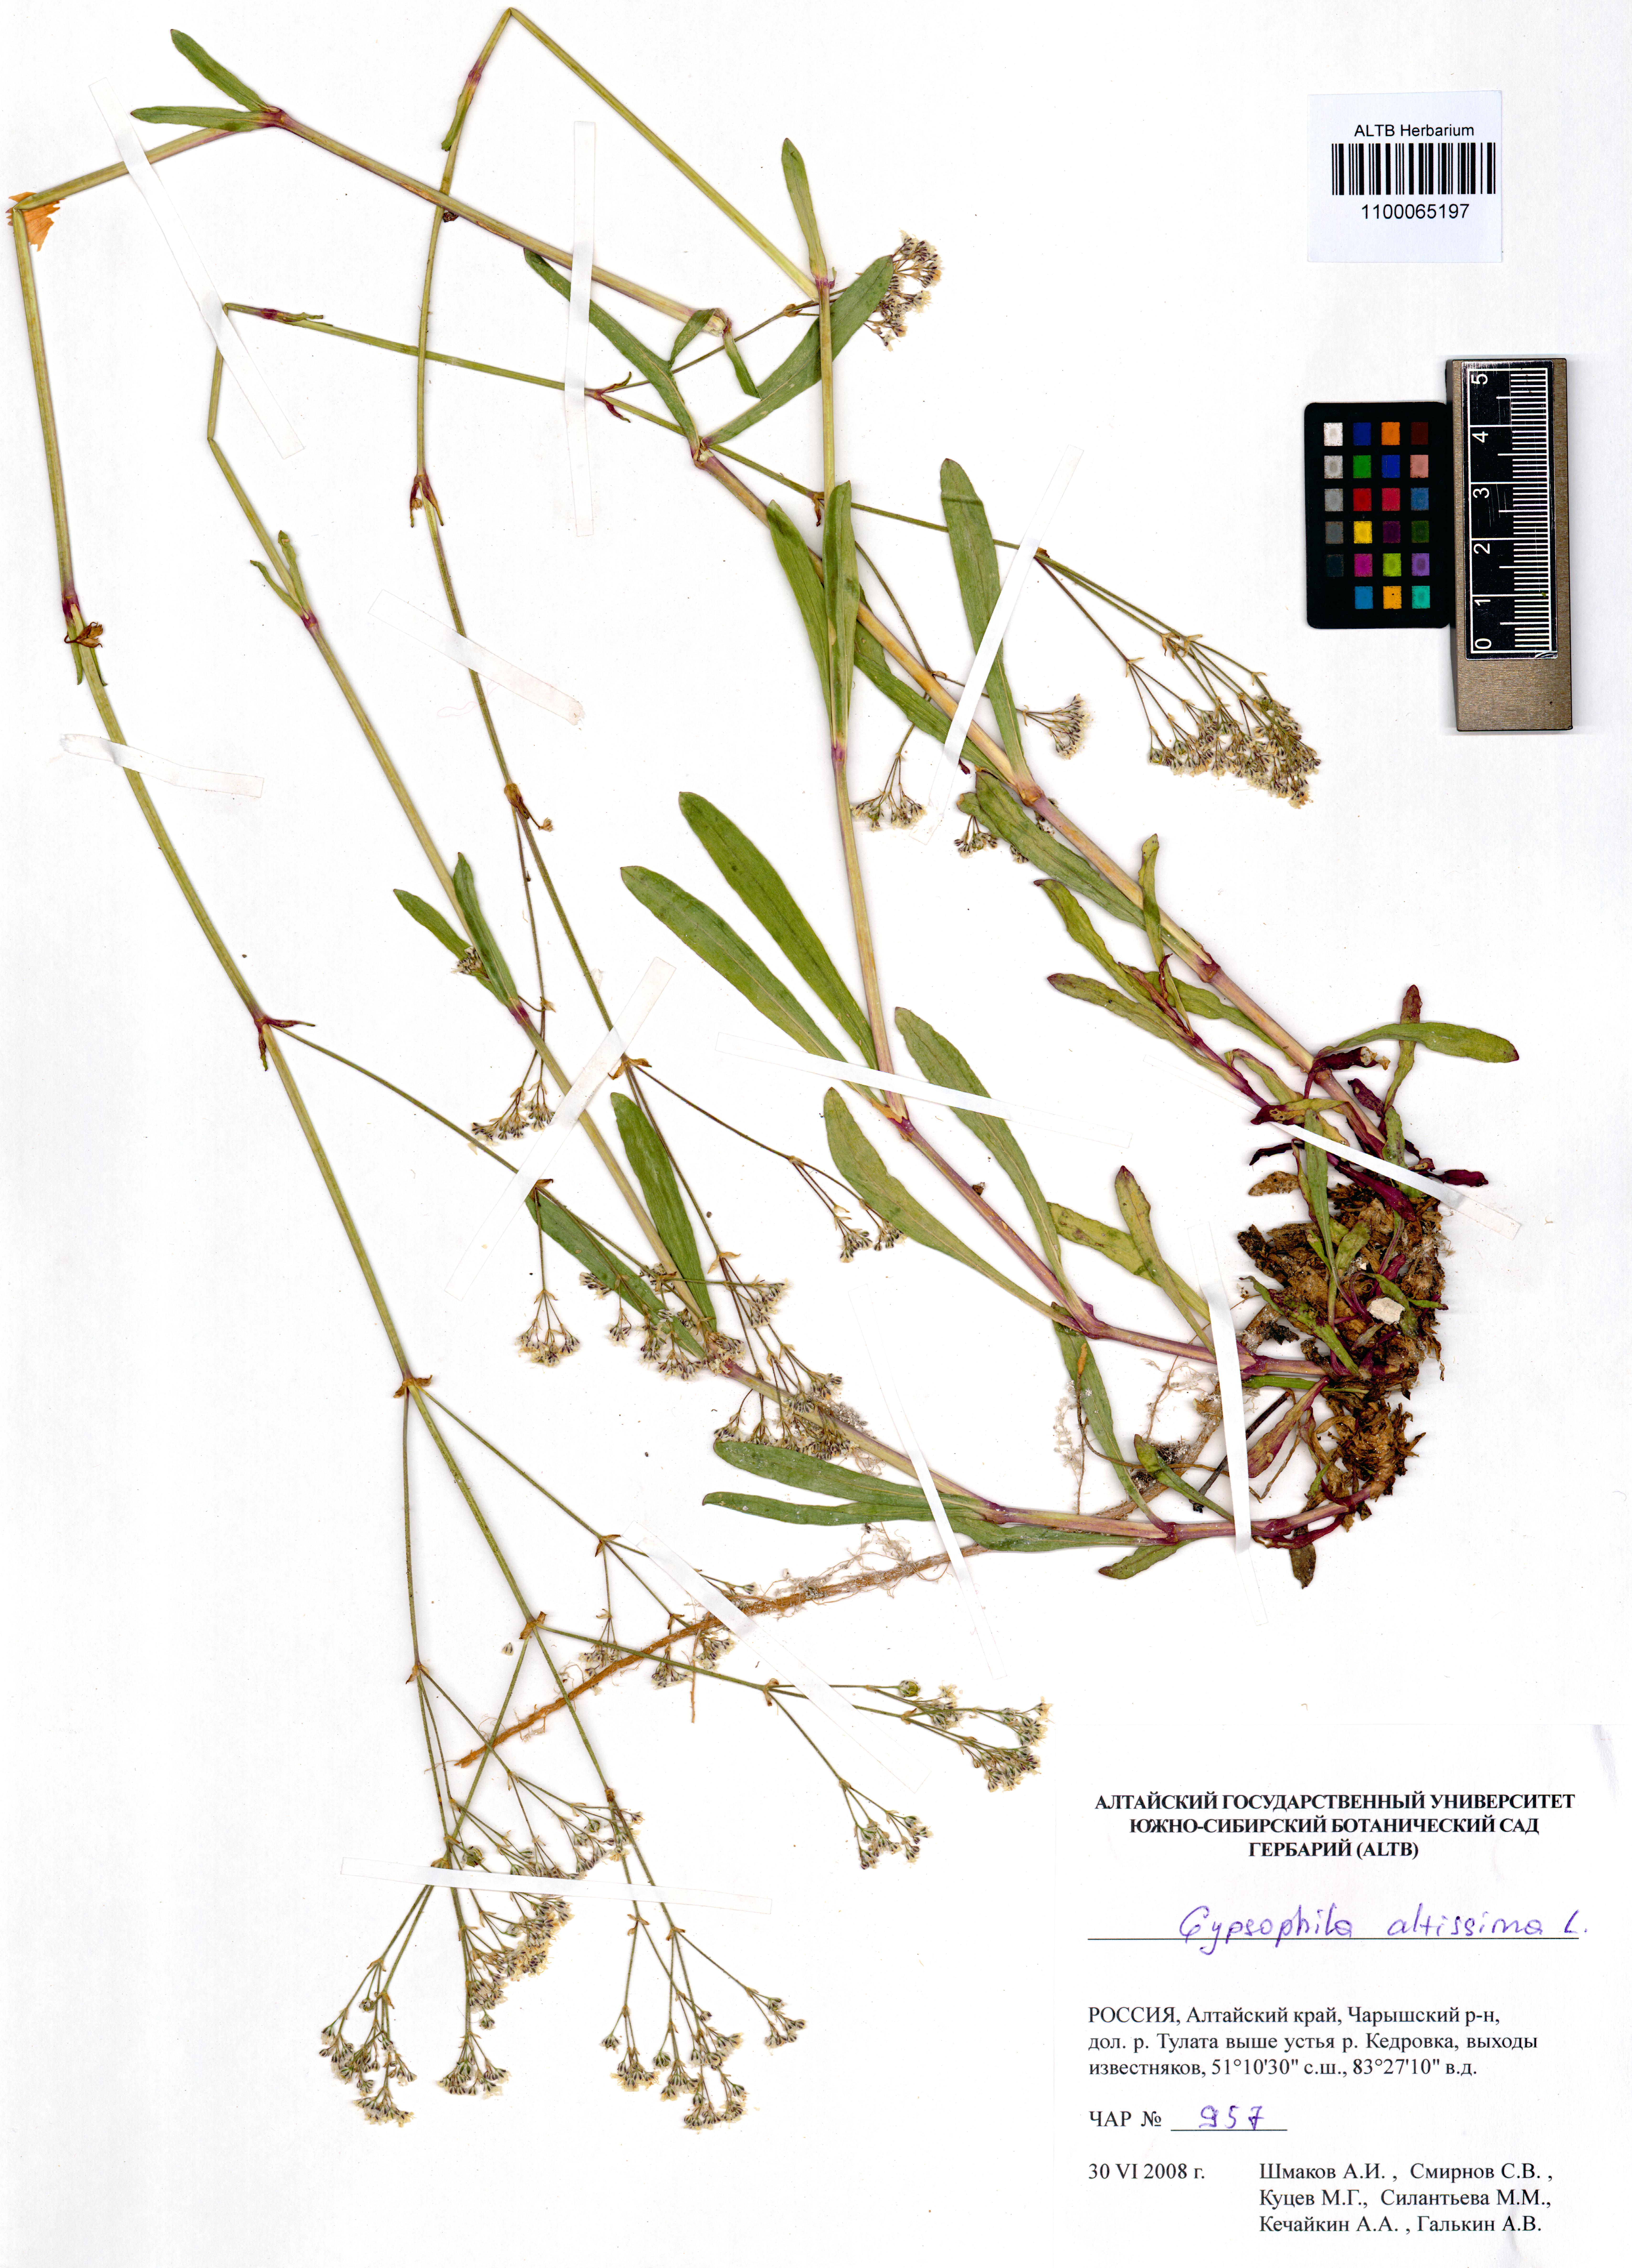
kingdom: Plantae
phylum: Tracheophyta
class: Magnoliopsida
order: Caryophyllales
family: Caryophyllaceae
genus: Gypsophila
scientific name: Gypsophila altissima
